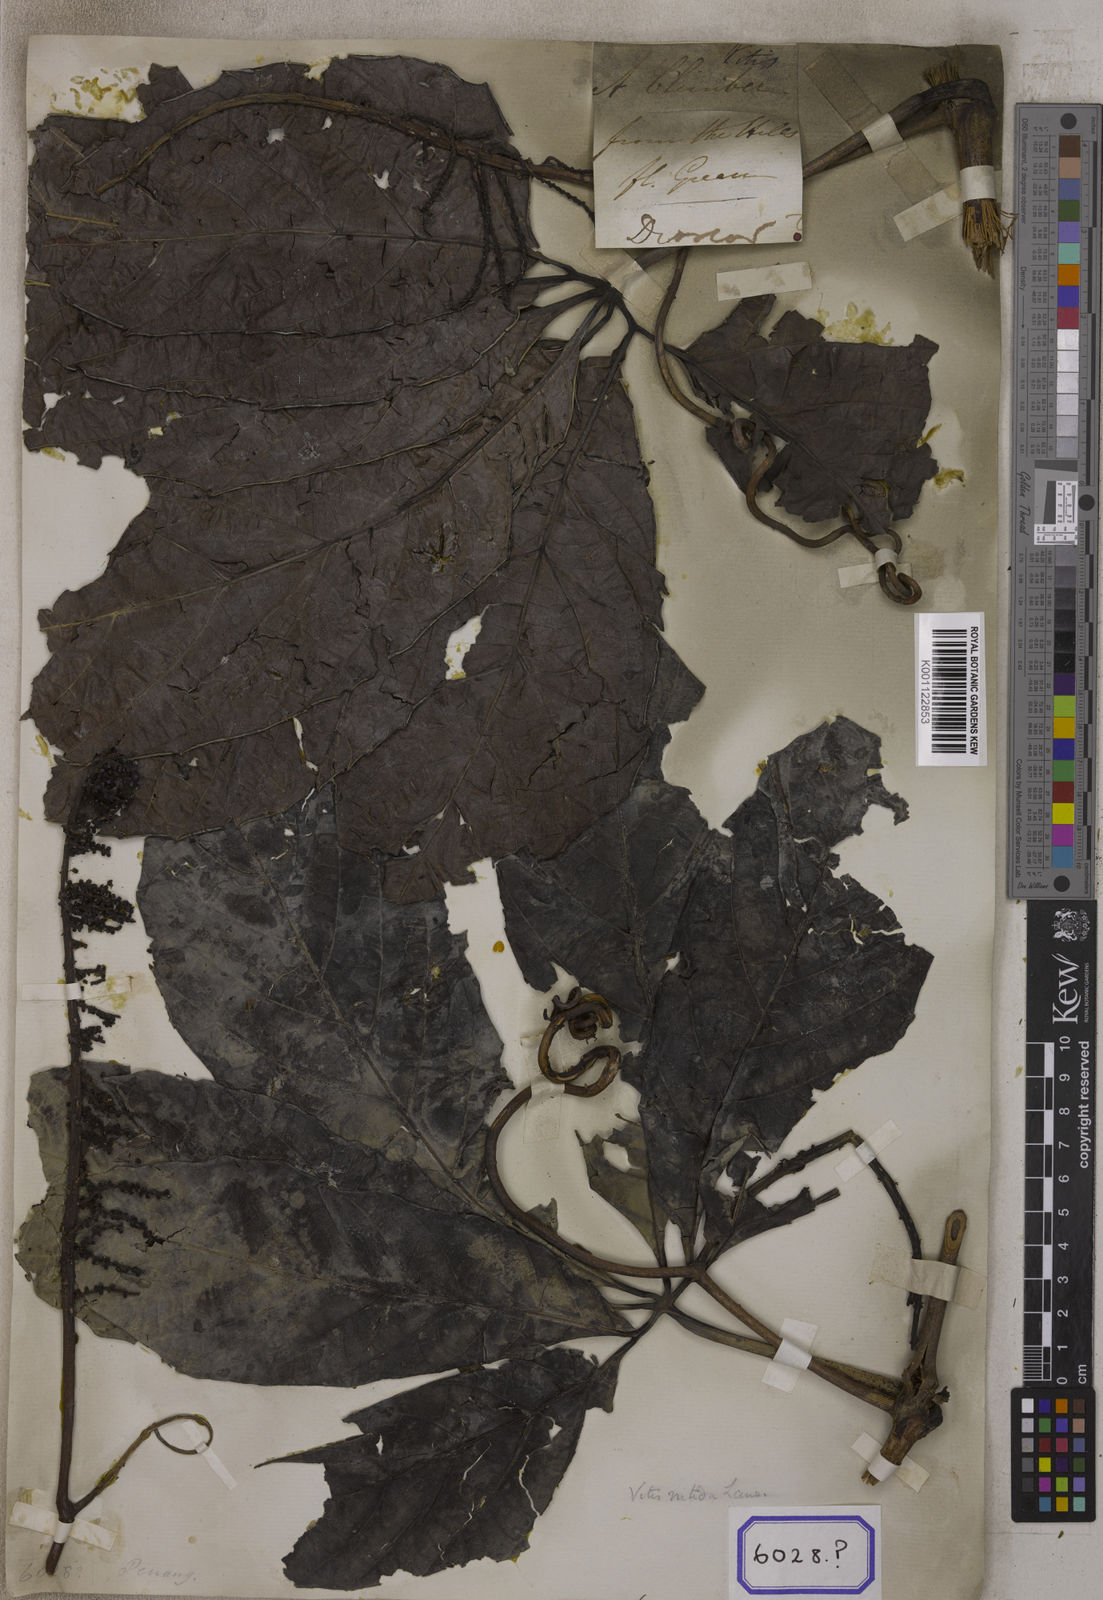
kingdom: Plantae
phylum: Tracheophyta
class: Magnoliopsida
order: Vitales
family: Vitaceae
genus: Vitis
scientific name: Vitis
